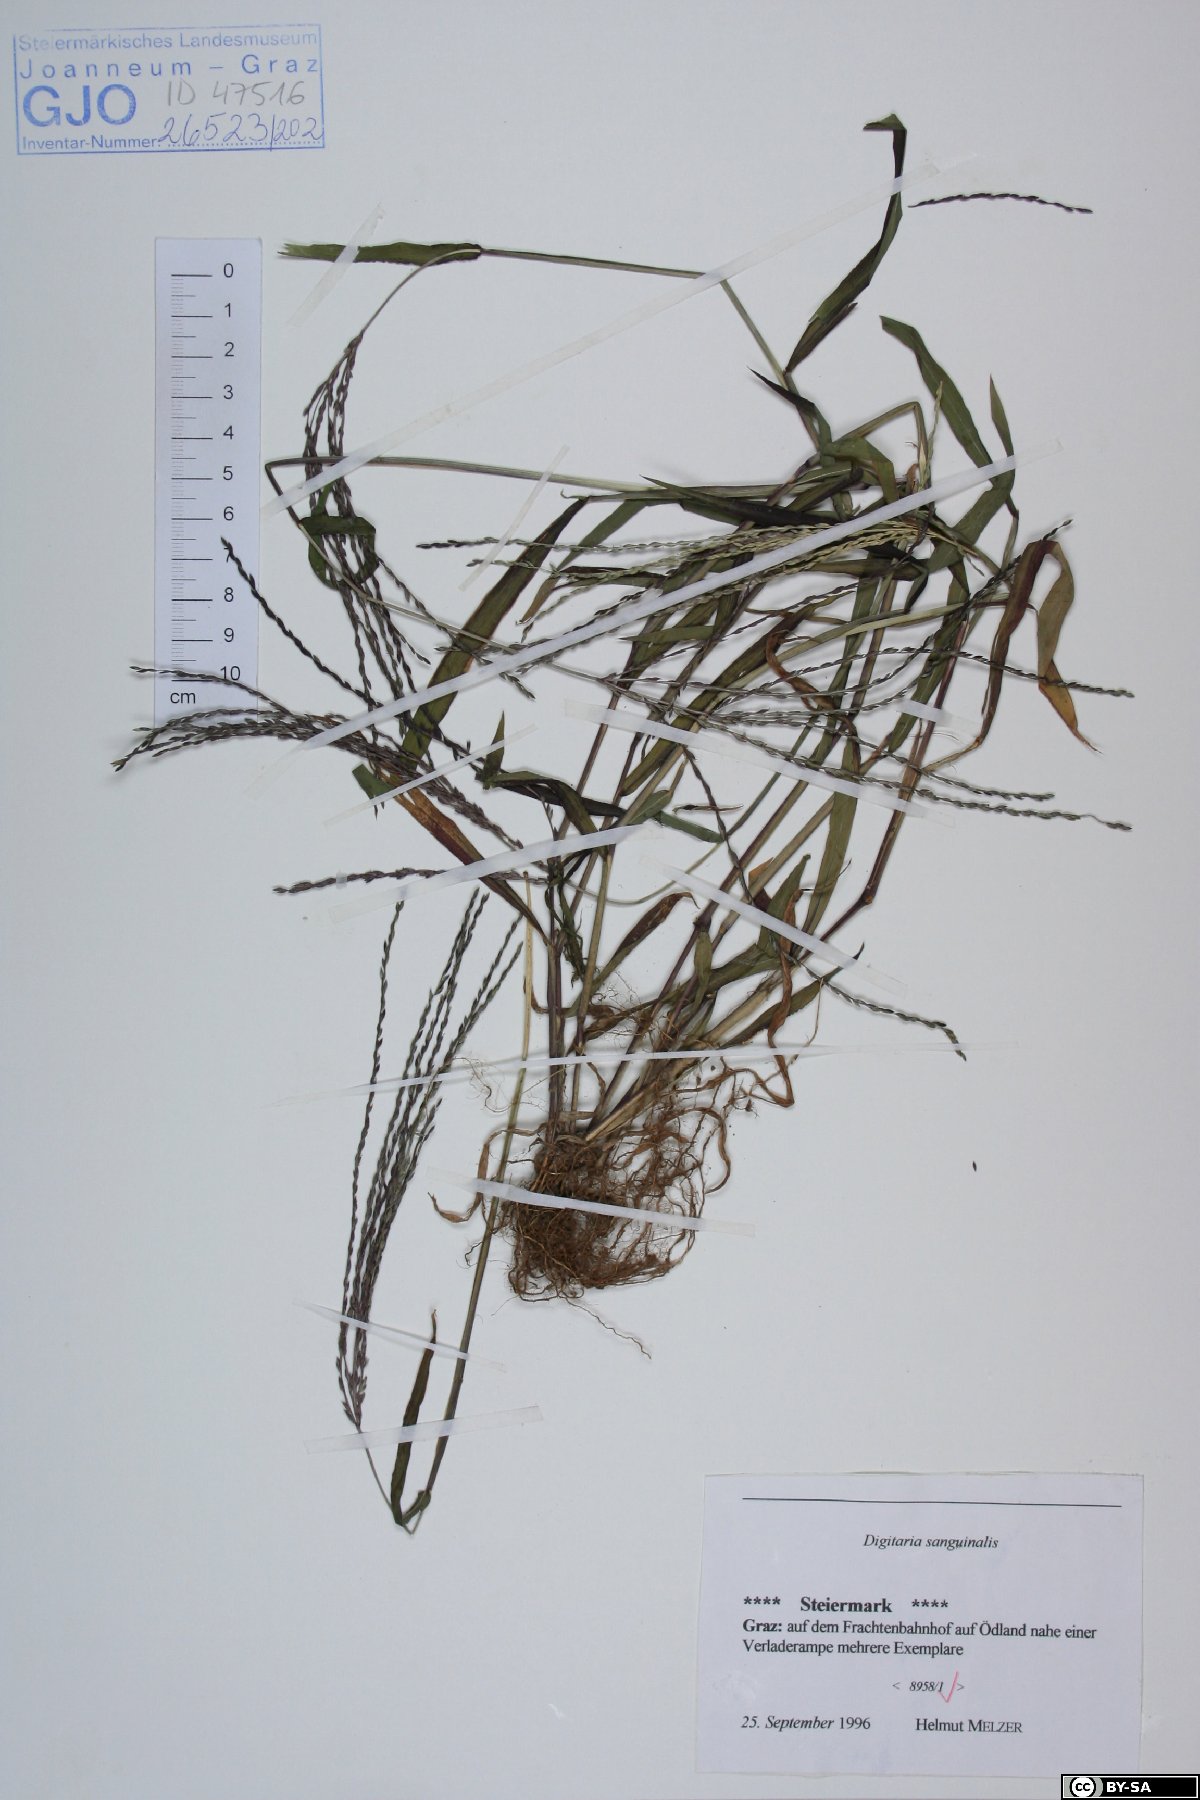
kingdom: Plantae
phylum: Tracheophyta
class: Liliopsida
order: Poales
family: Poaceae
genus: Digitaria
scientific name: Digitaria sanguinalis
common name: Hairy crabgrass
